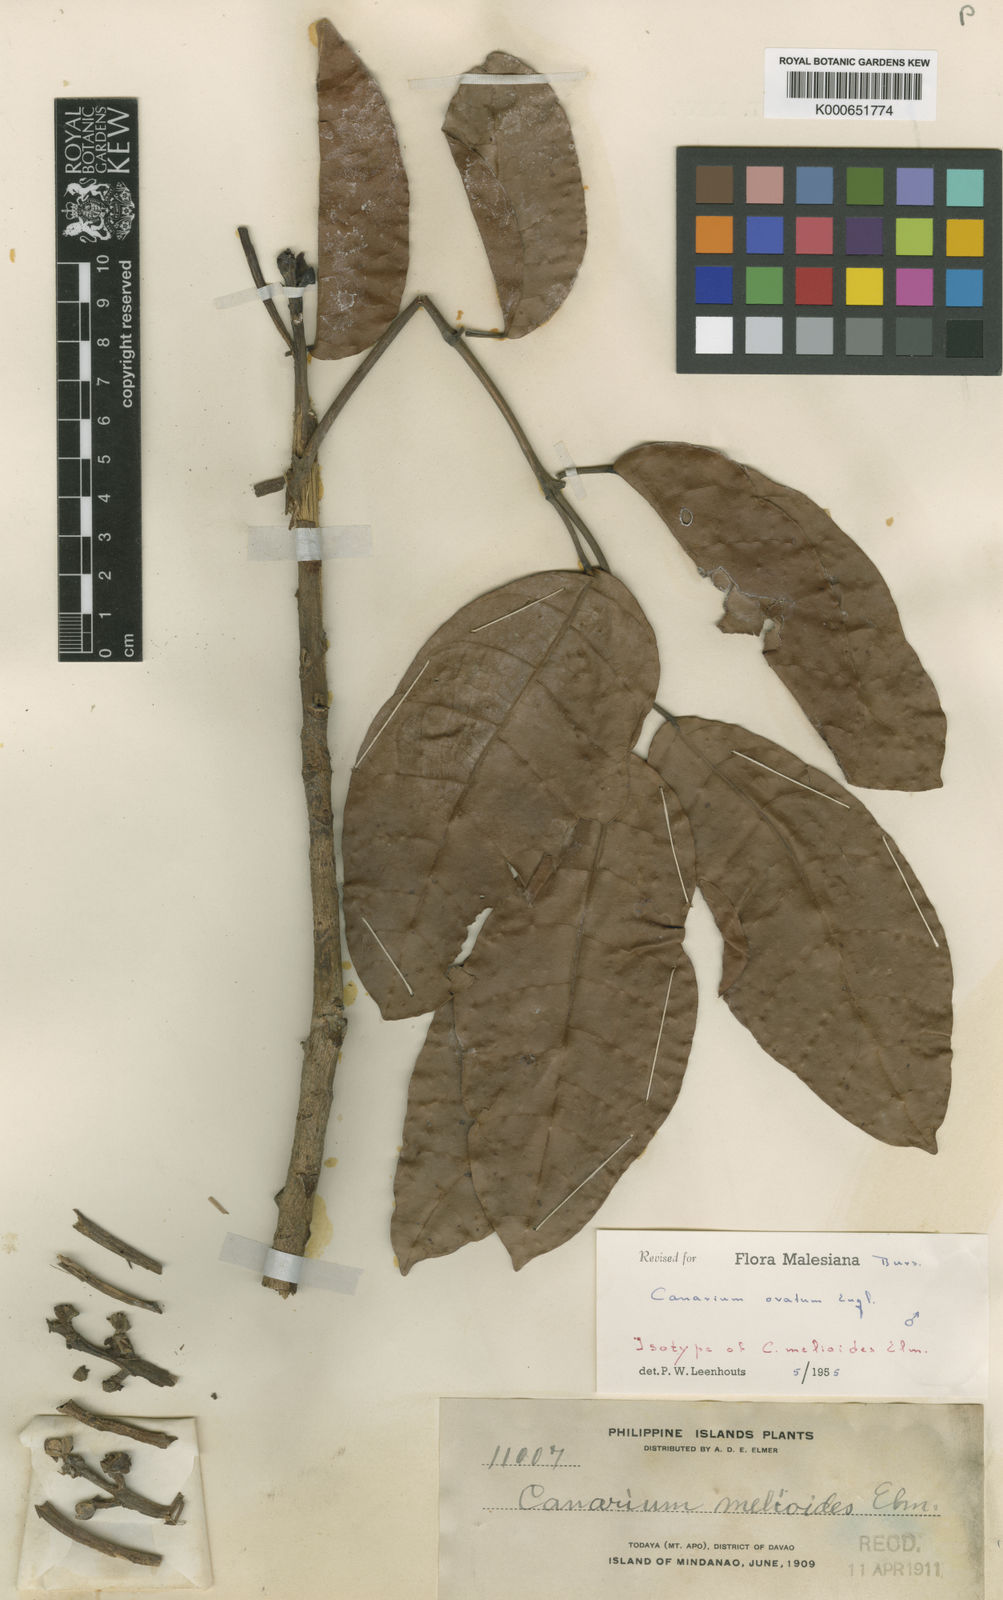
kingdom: Plantae
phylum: Tracheophyta
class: Magnoliopsida
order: Sapindales
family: Burseraceae
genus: Canarium
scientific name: Canarium ovatum
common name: Pilinut
